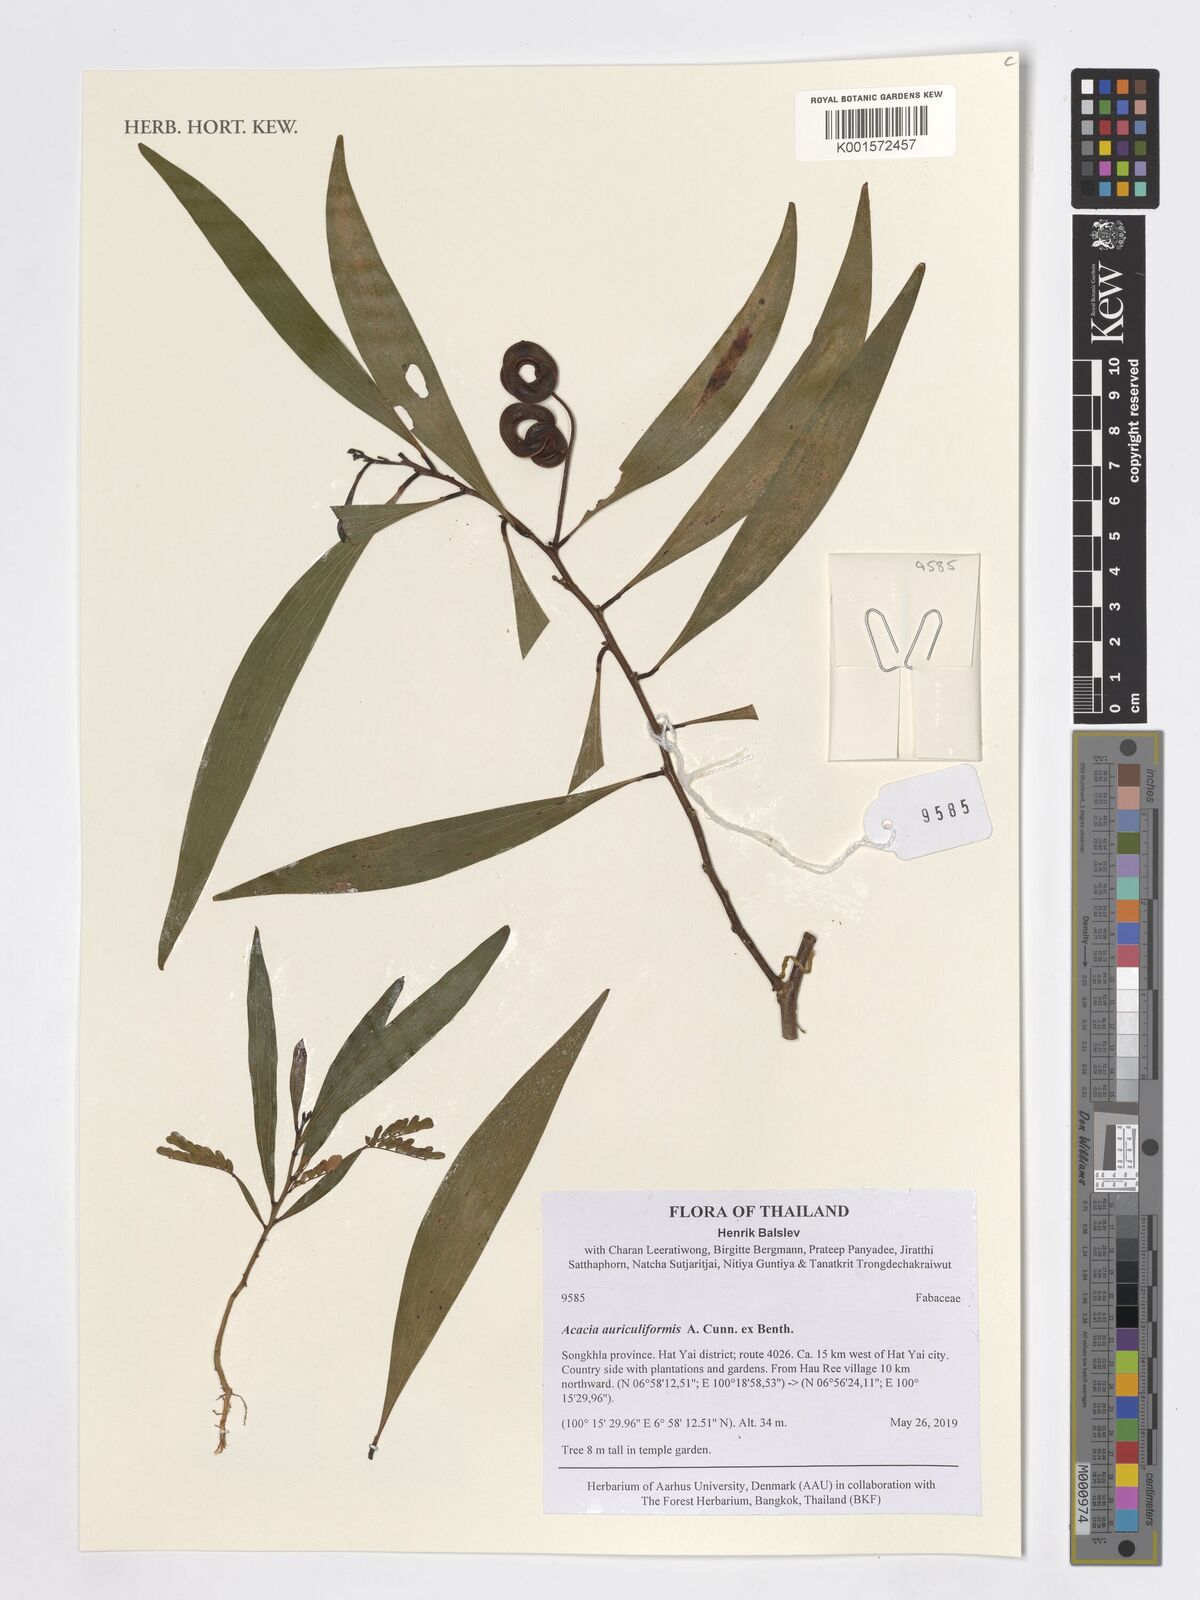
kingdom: Plantae
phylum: Tracheophyta
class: Magnoliopsida
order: Fabales
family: Fabaceae
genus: Acacia
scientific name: Acacia auriculiformis
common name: Earleaf acacia
